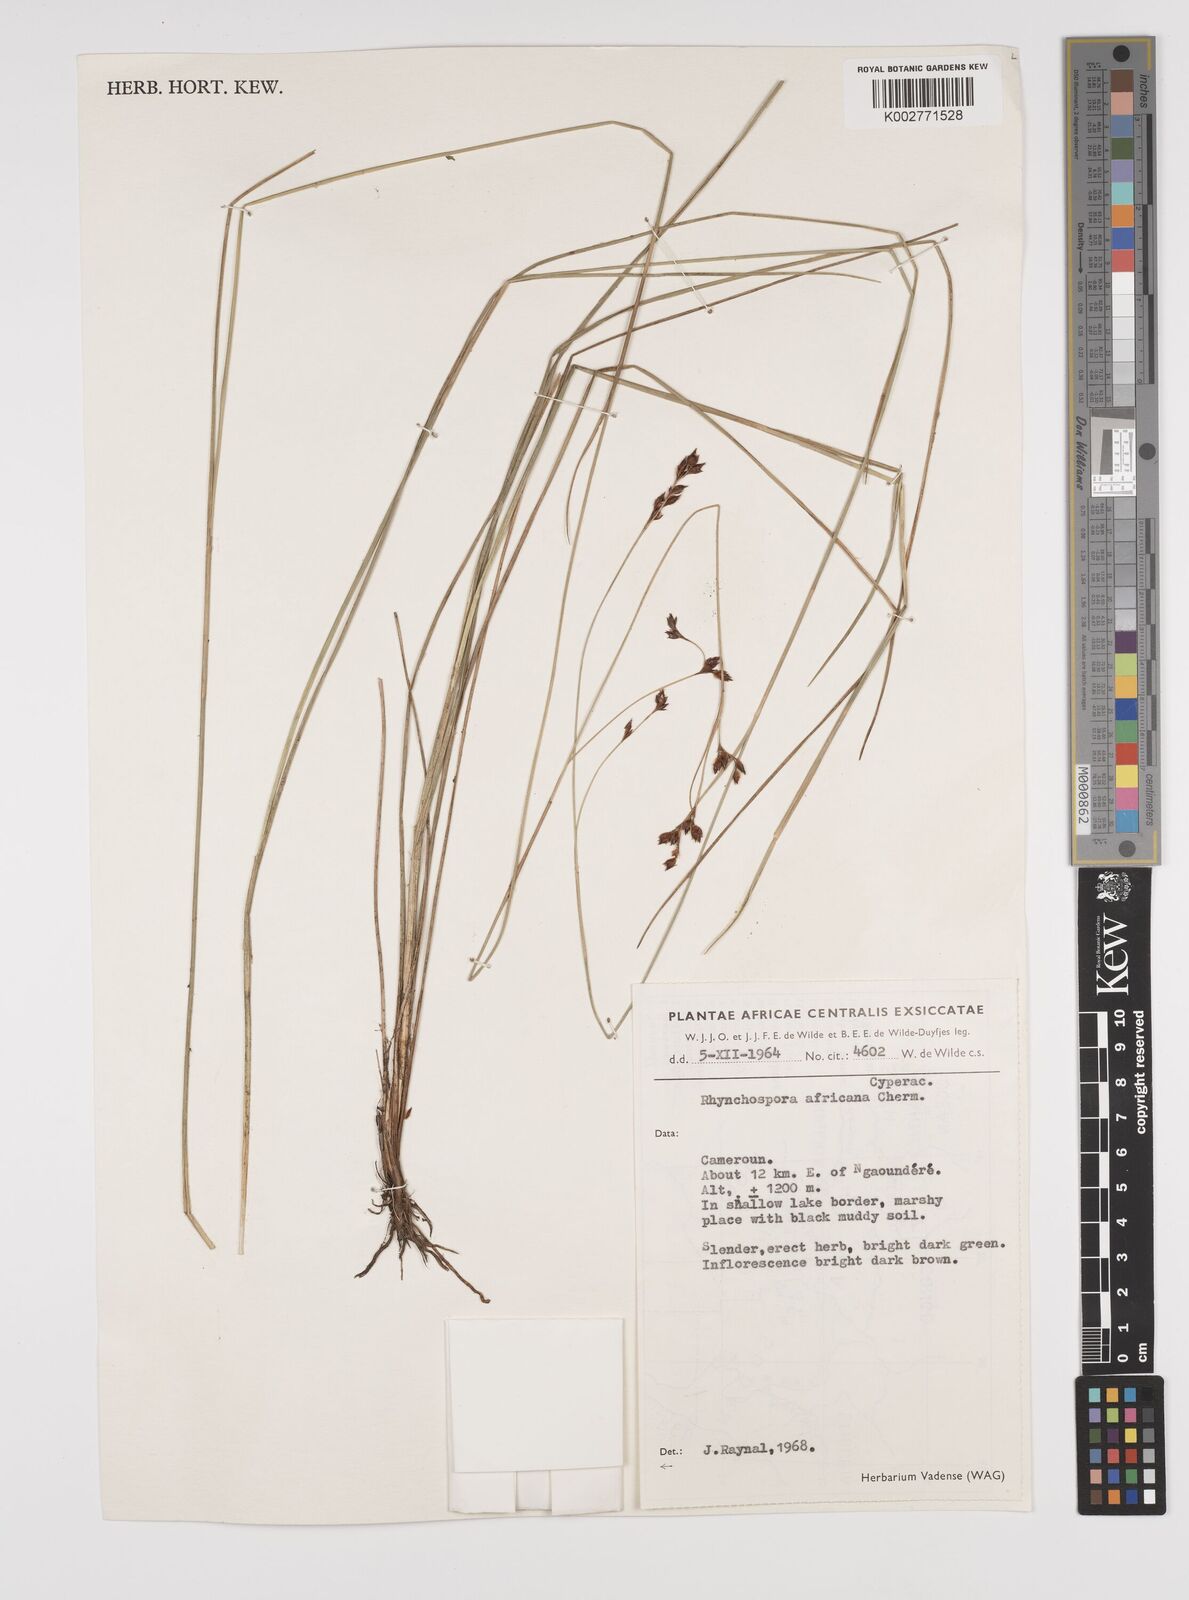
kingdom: Plantae
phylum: Tracheophyta
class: Liliopsida
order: Poales
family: Cyperaceae
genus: Rhynchospora
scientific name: Rhynchospora angolensis
